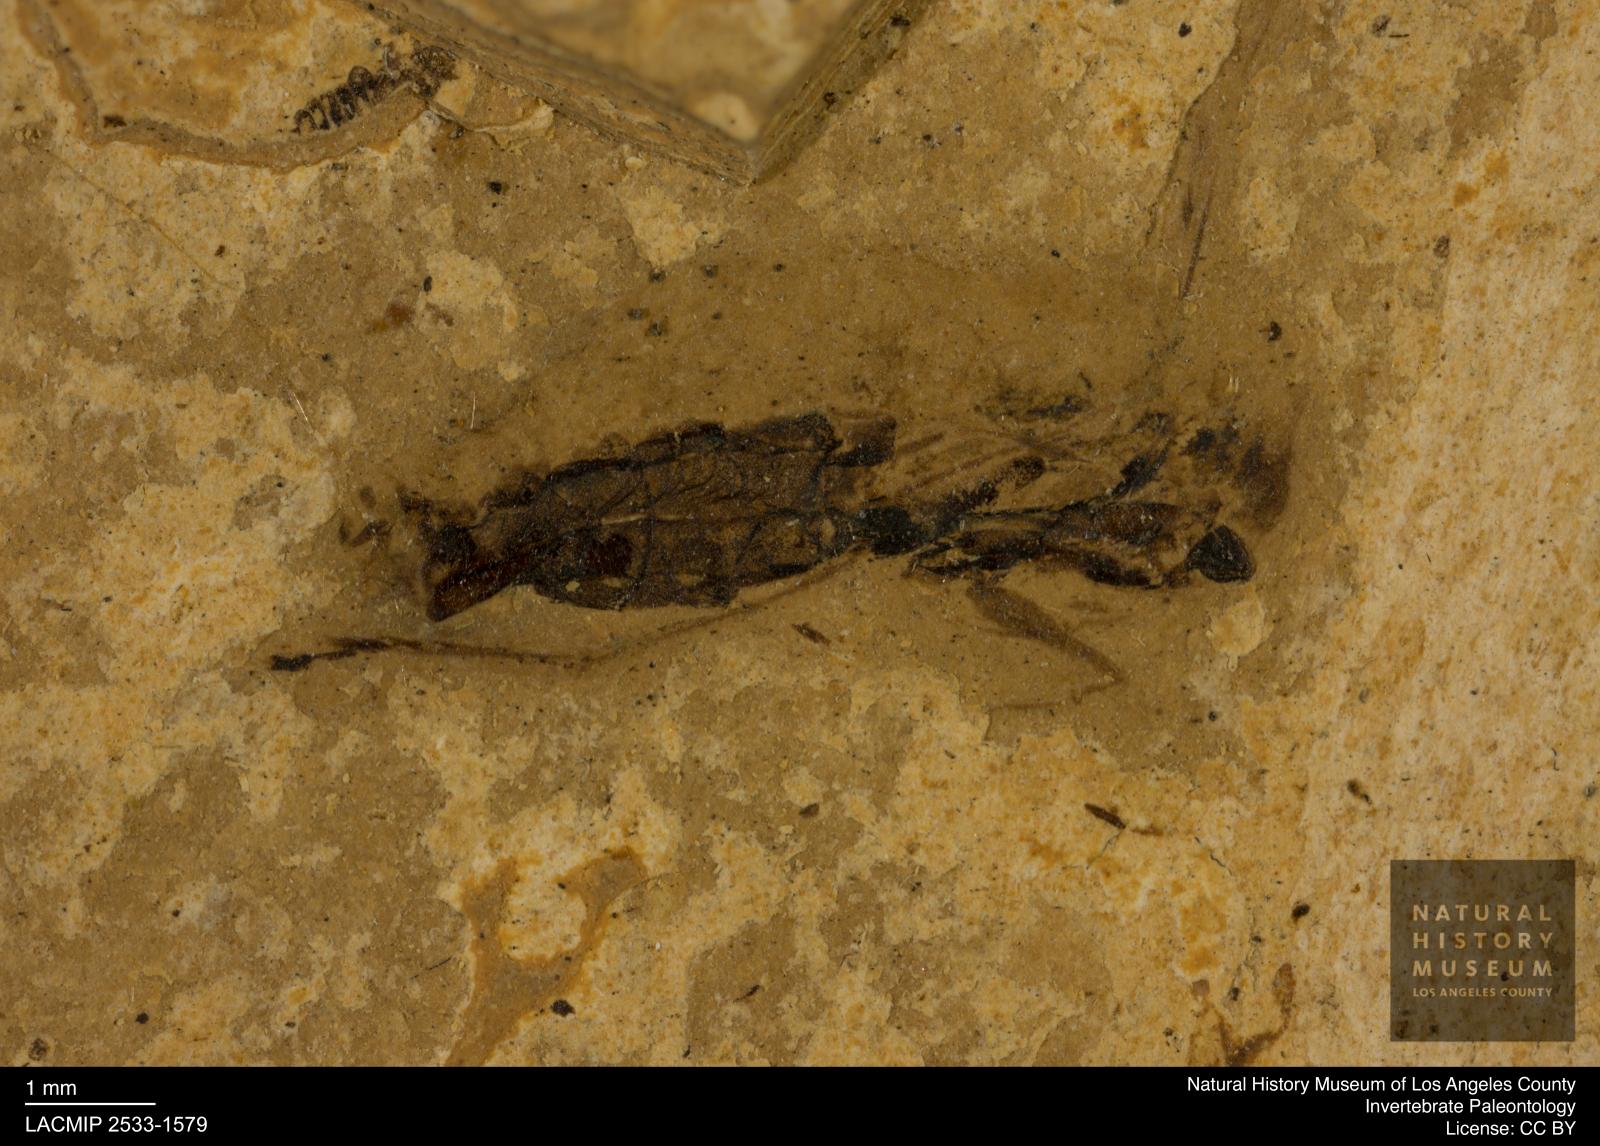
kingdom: Animalia
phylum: Arthropoda
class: Insecta
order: Hemiptera
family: Notonectidae
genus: Notonecta
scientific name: Notonecta
